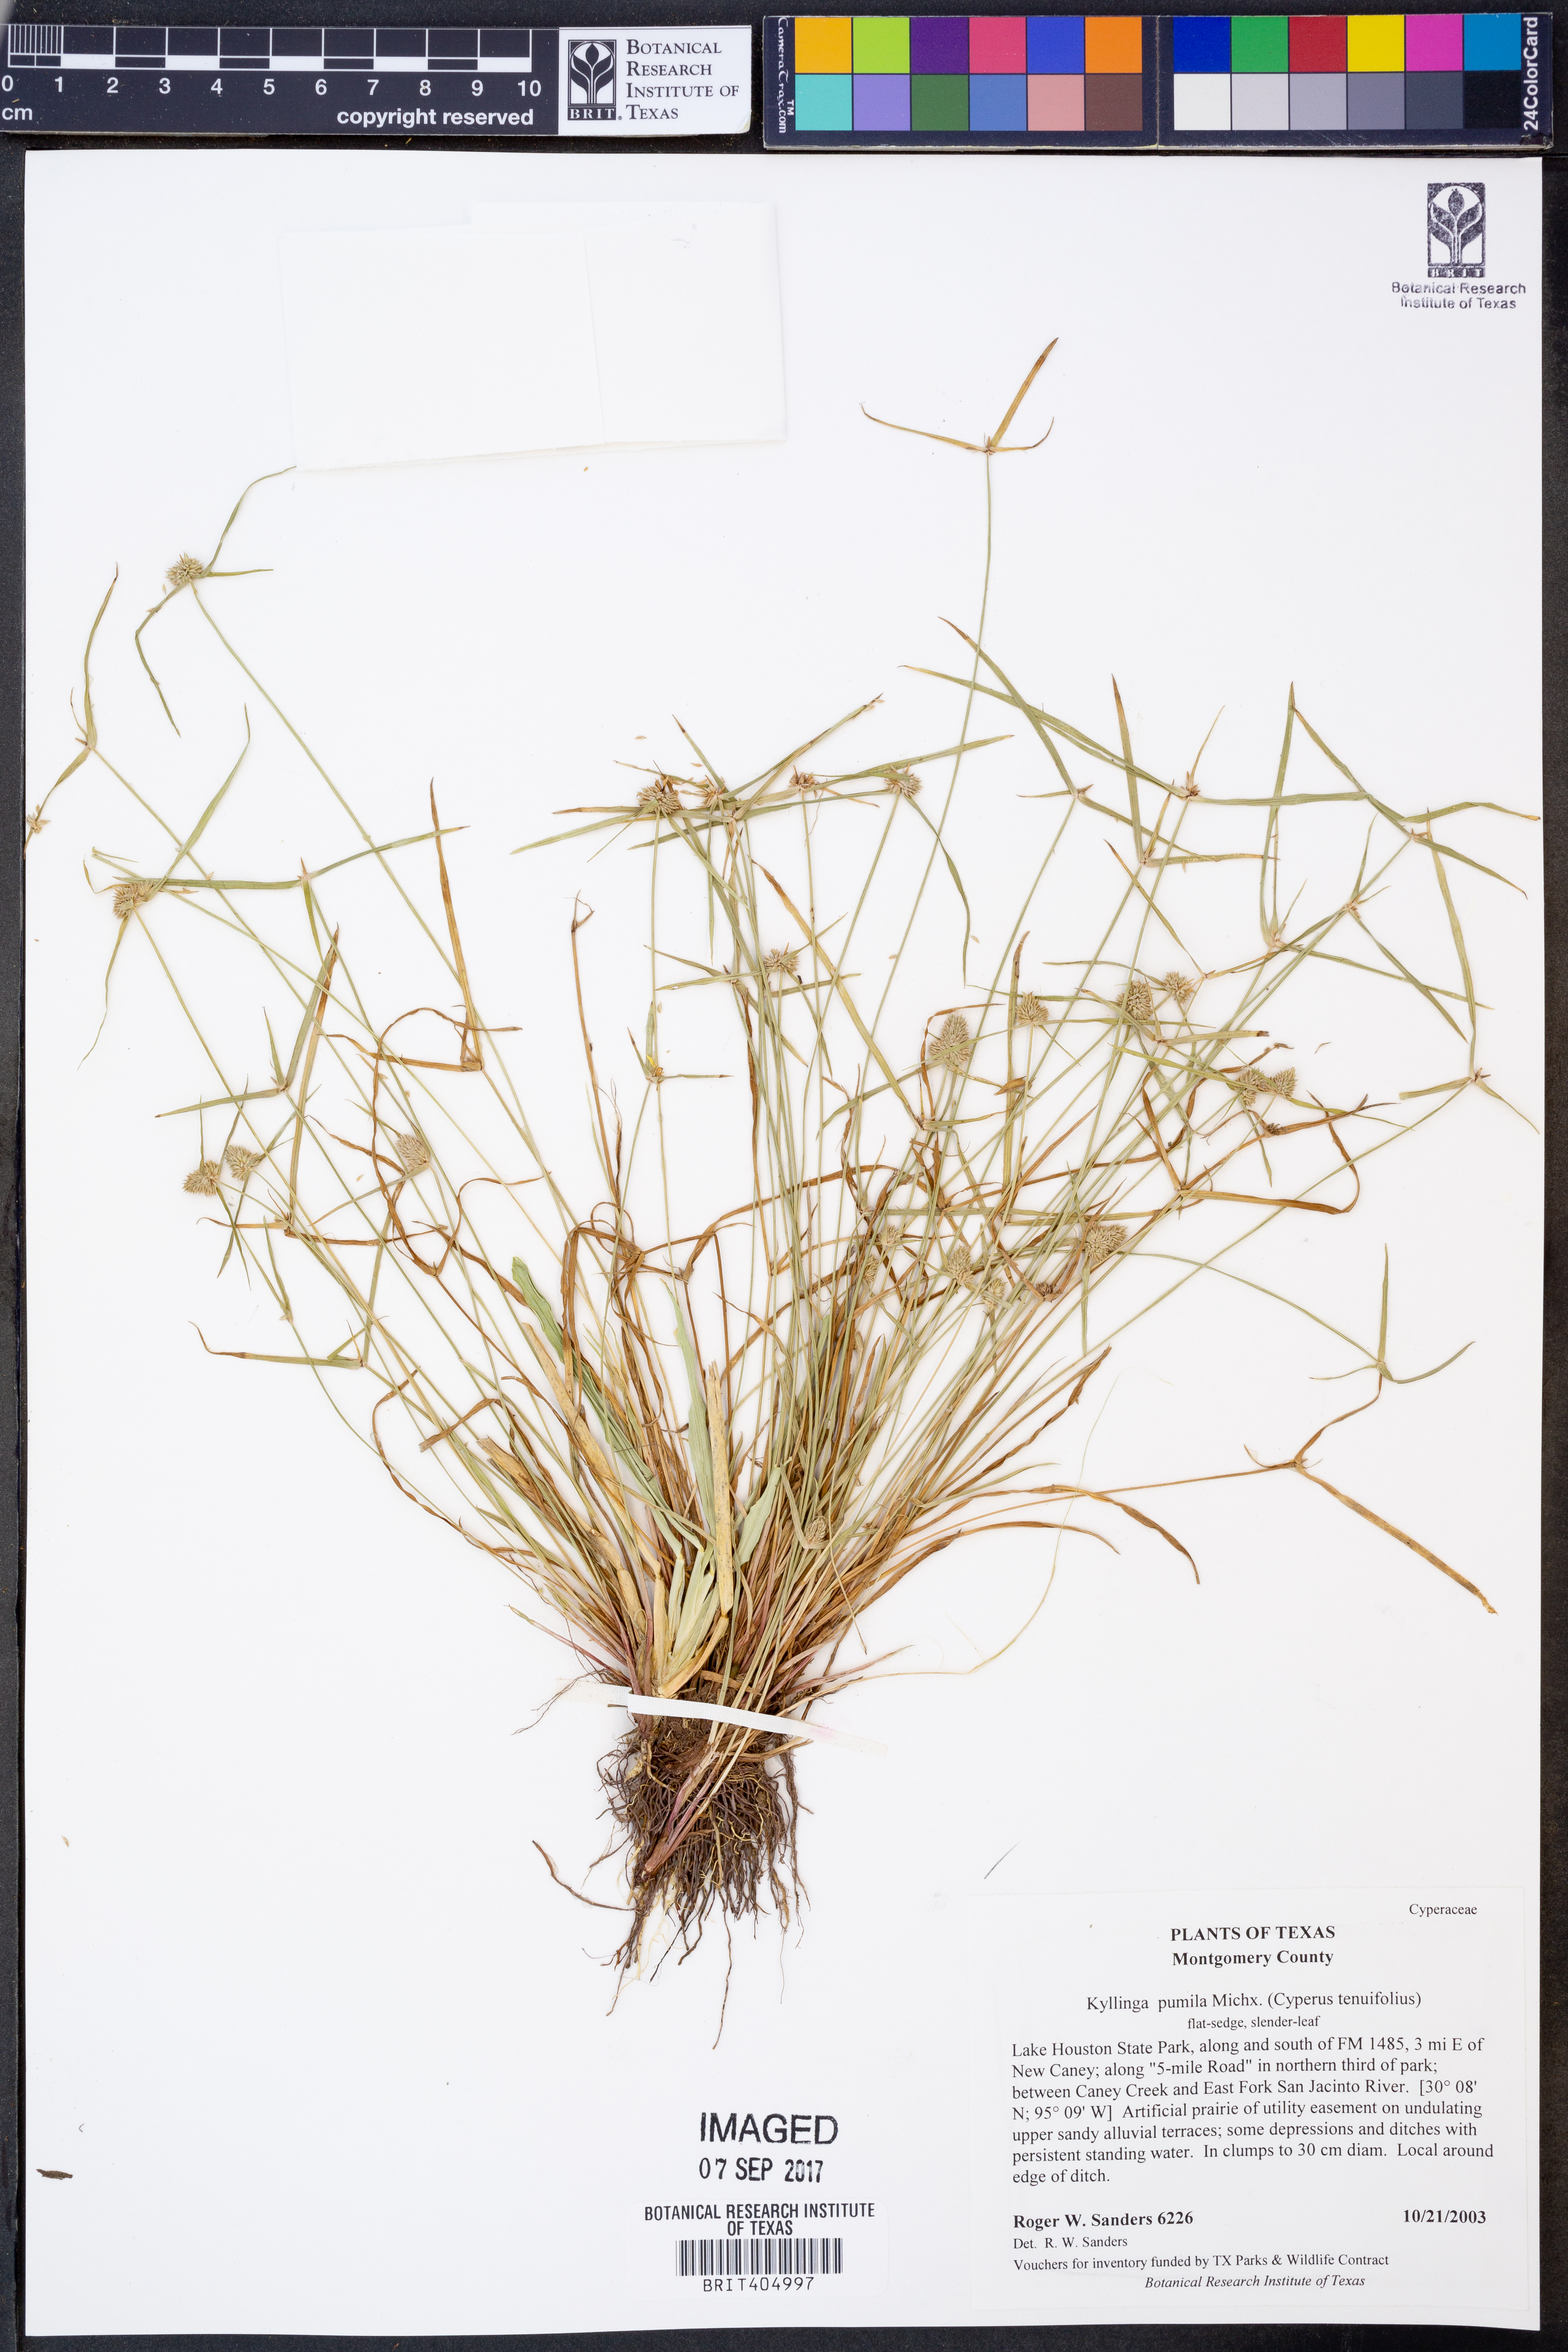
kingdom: Plantae
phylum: Tracheophyta
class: Liliopsida
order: Poales
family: Cyperaceae
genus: Cyperus
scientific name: Cyperus hortensis
